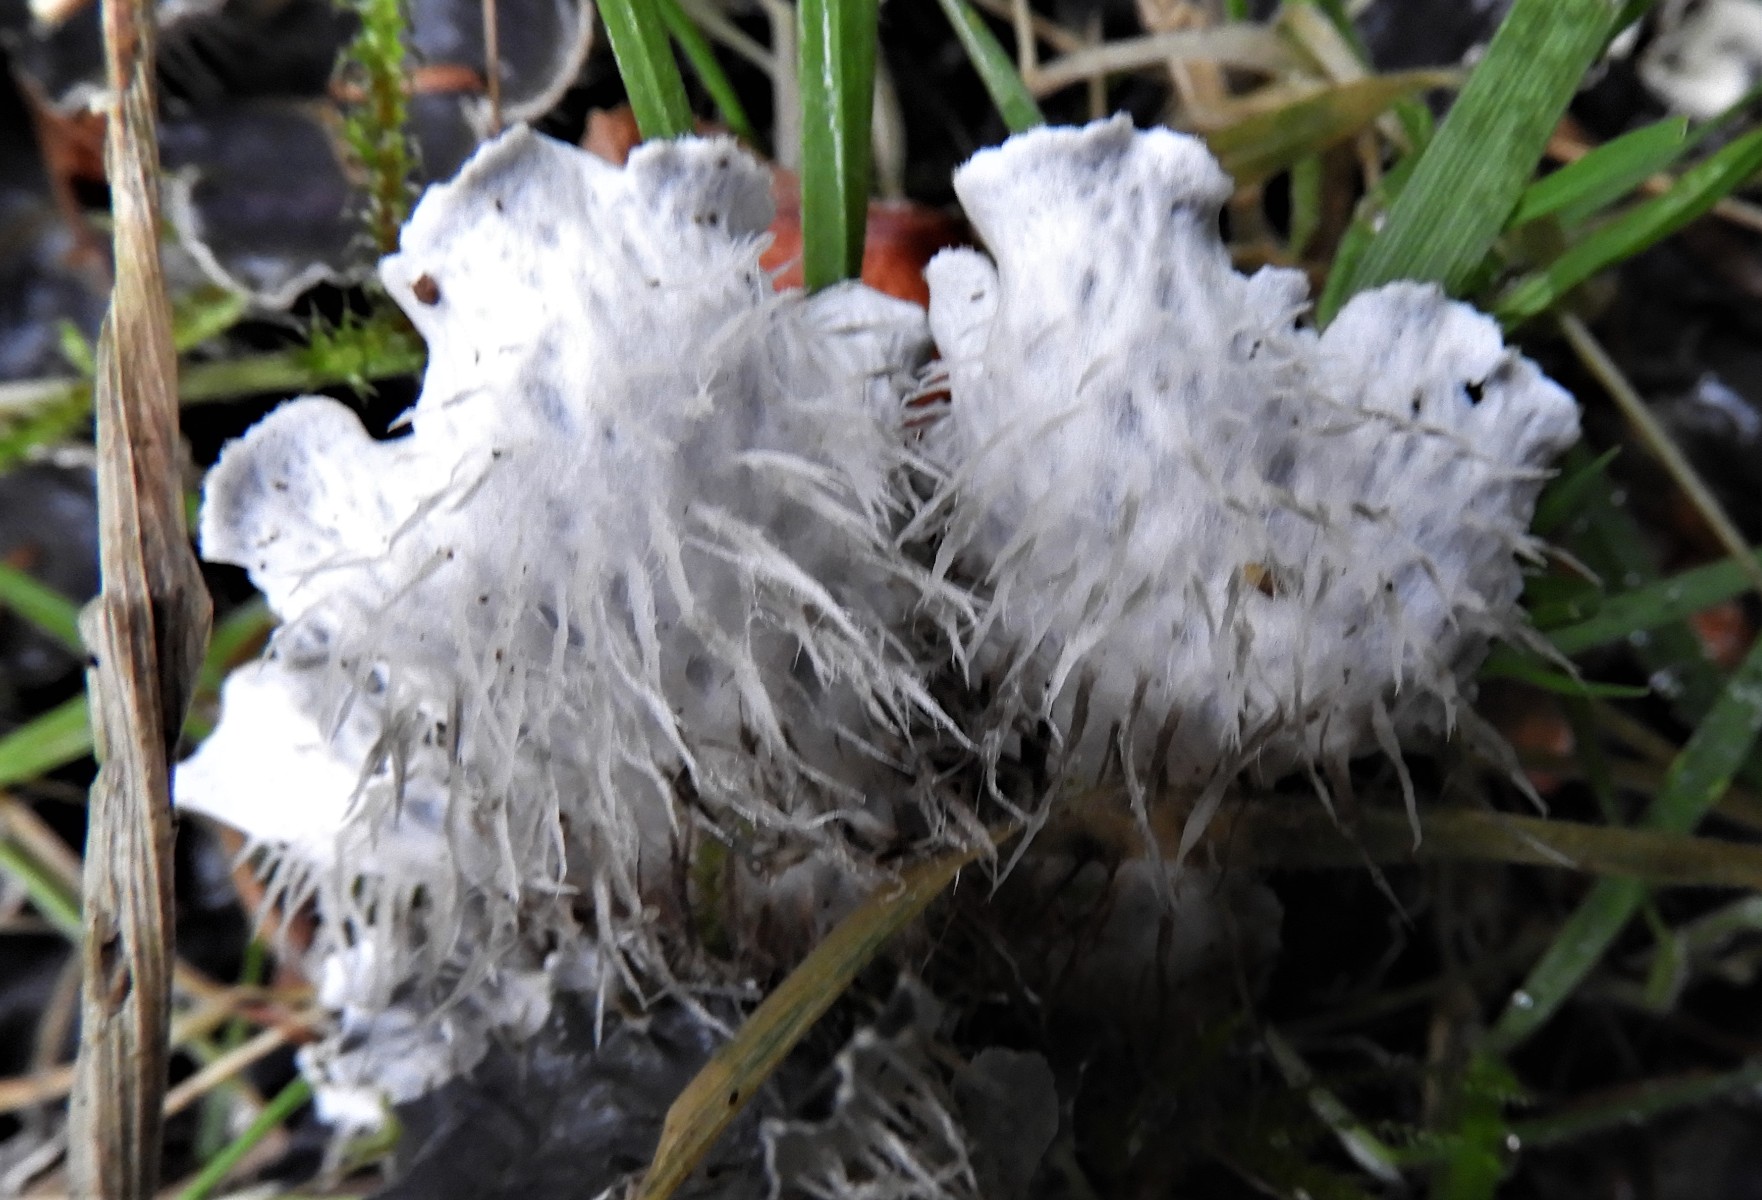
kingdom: Fungi
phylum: Ascomycota
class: Lecanoromycetes
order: Peltigerales
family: Peltigeraceae
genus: Peltigera
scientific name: Peltigera hymenina
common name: hinde-skjoldlav
